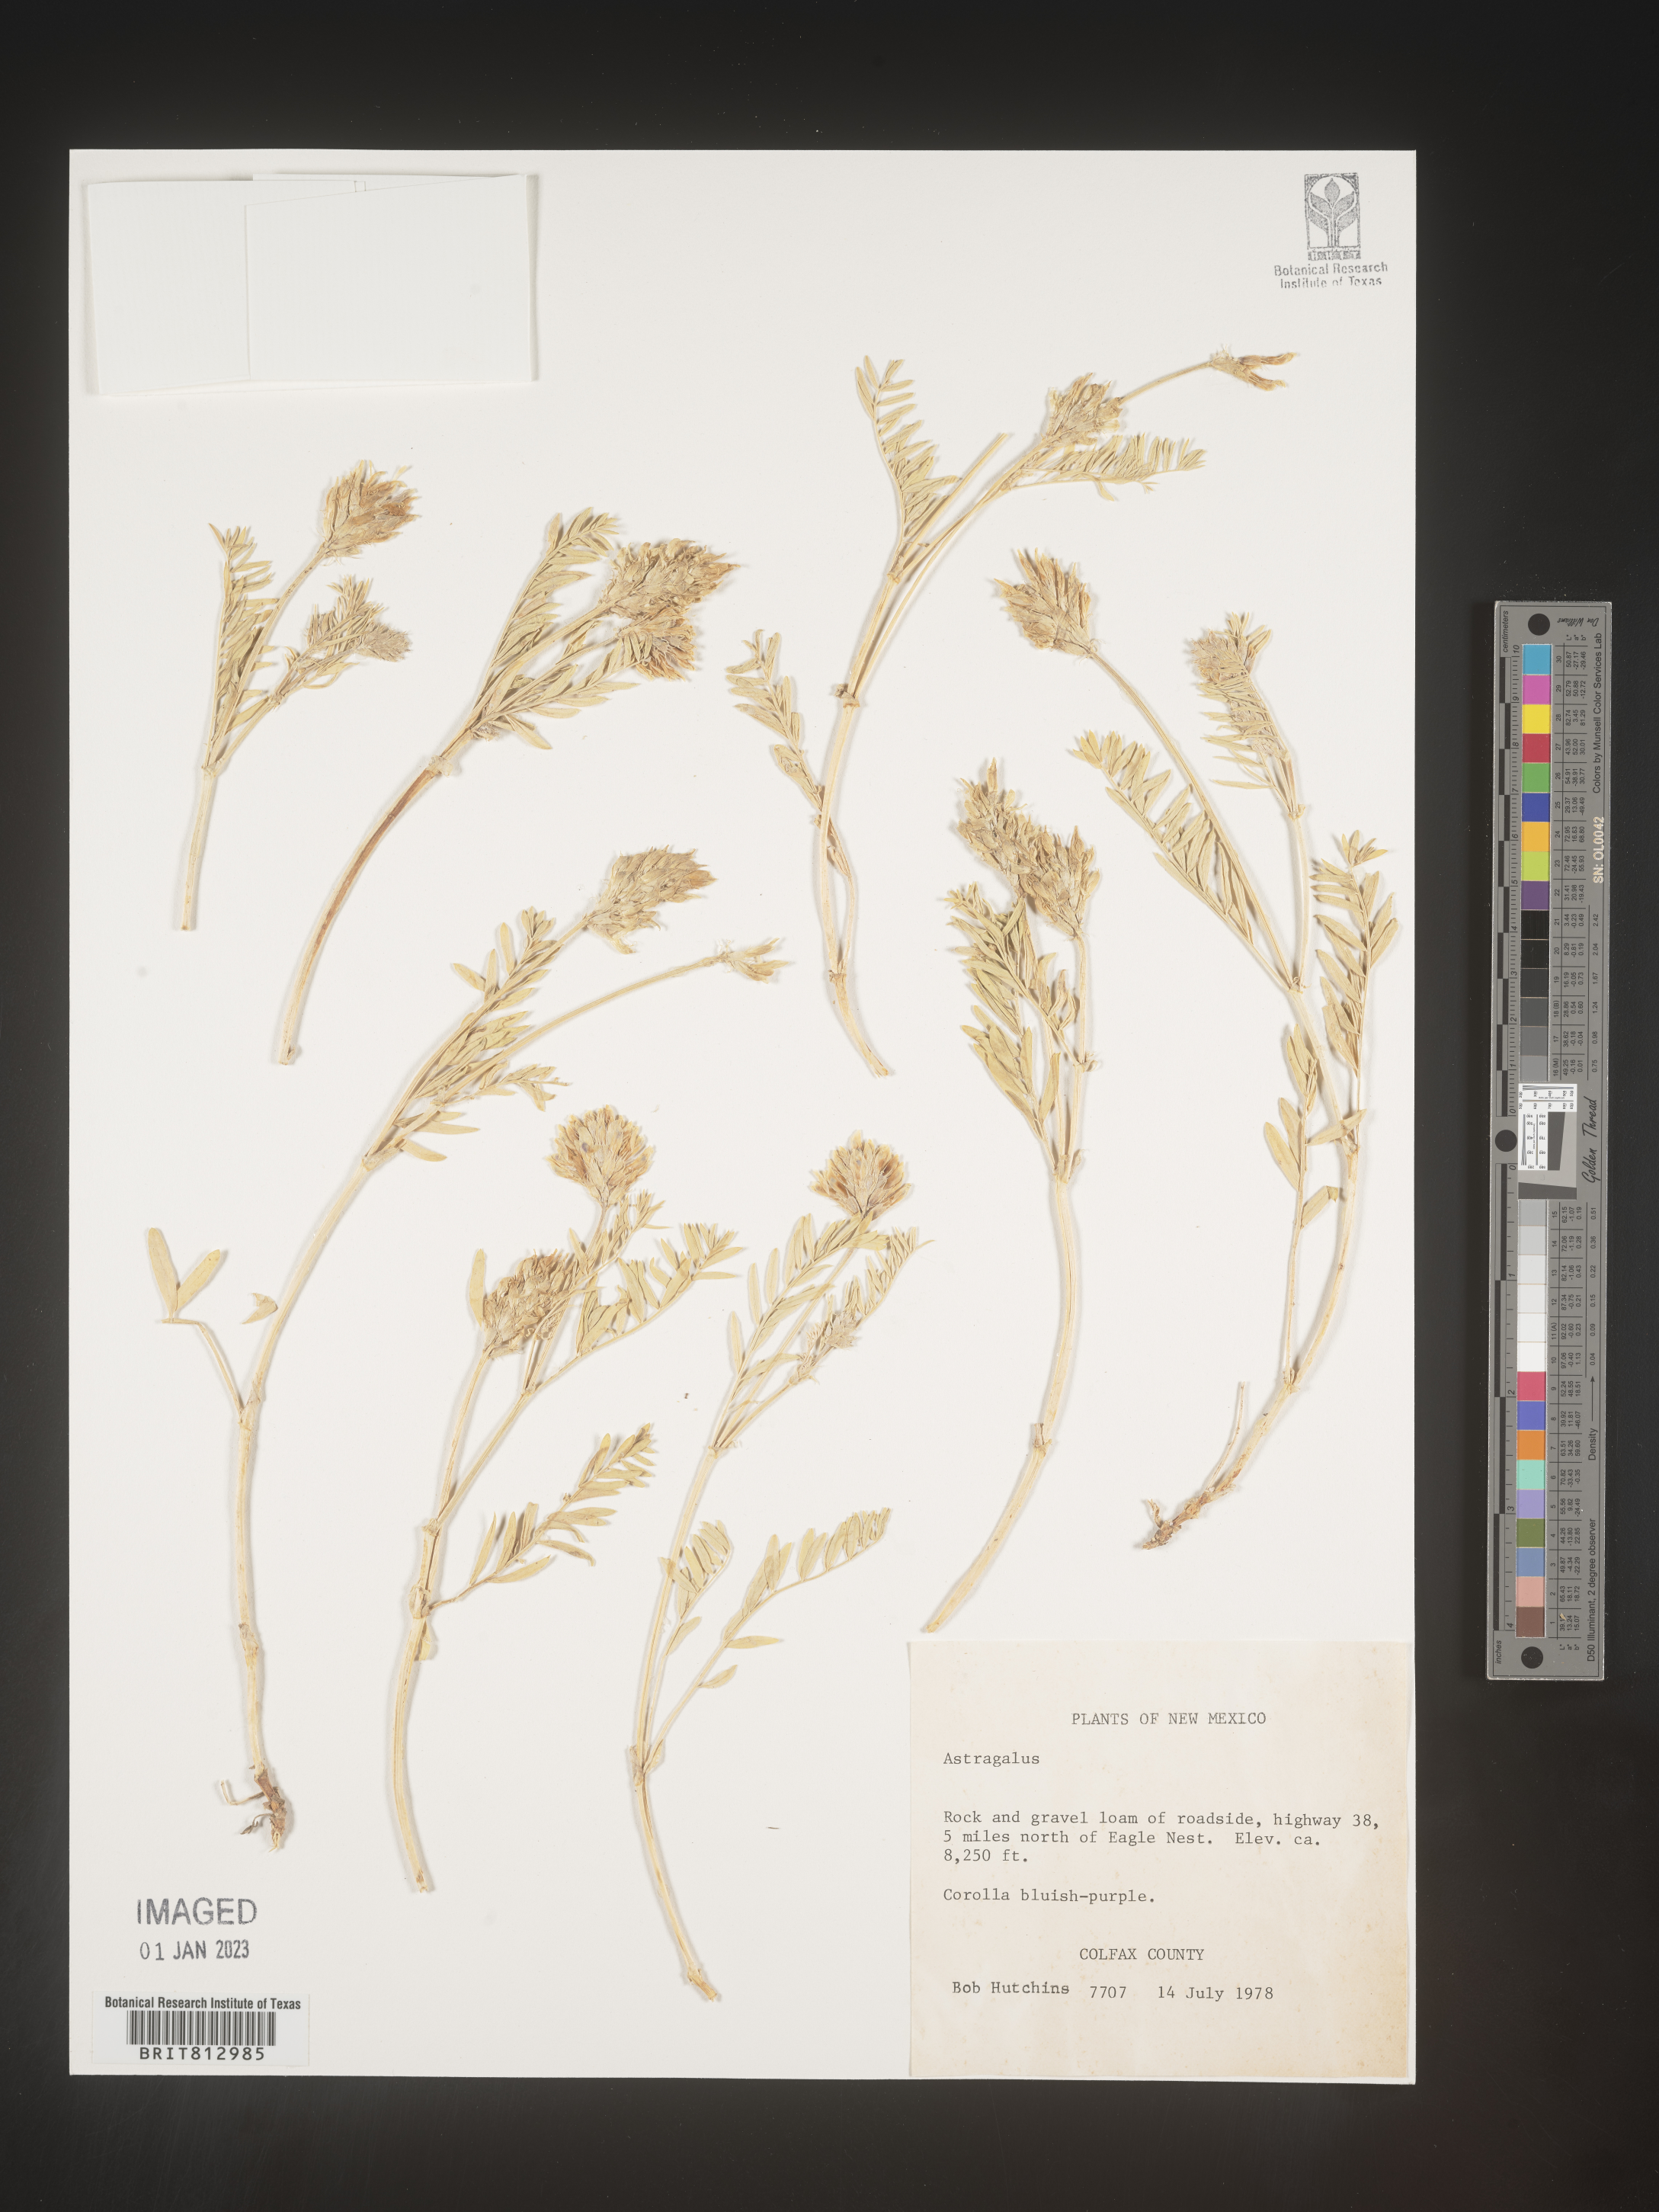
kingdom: Plantae
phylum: Tracheophyta
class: Magnoliopsida
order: Fabales
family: Fabaceae
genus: Astragalus
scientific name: Astragalus
